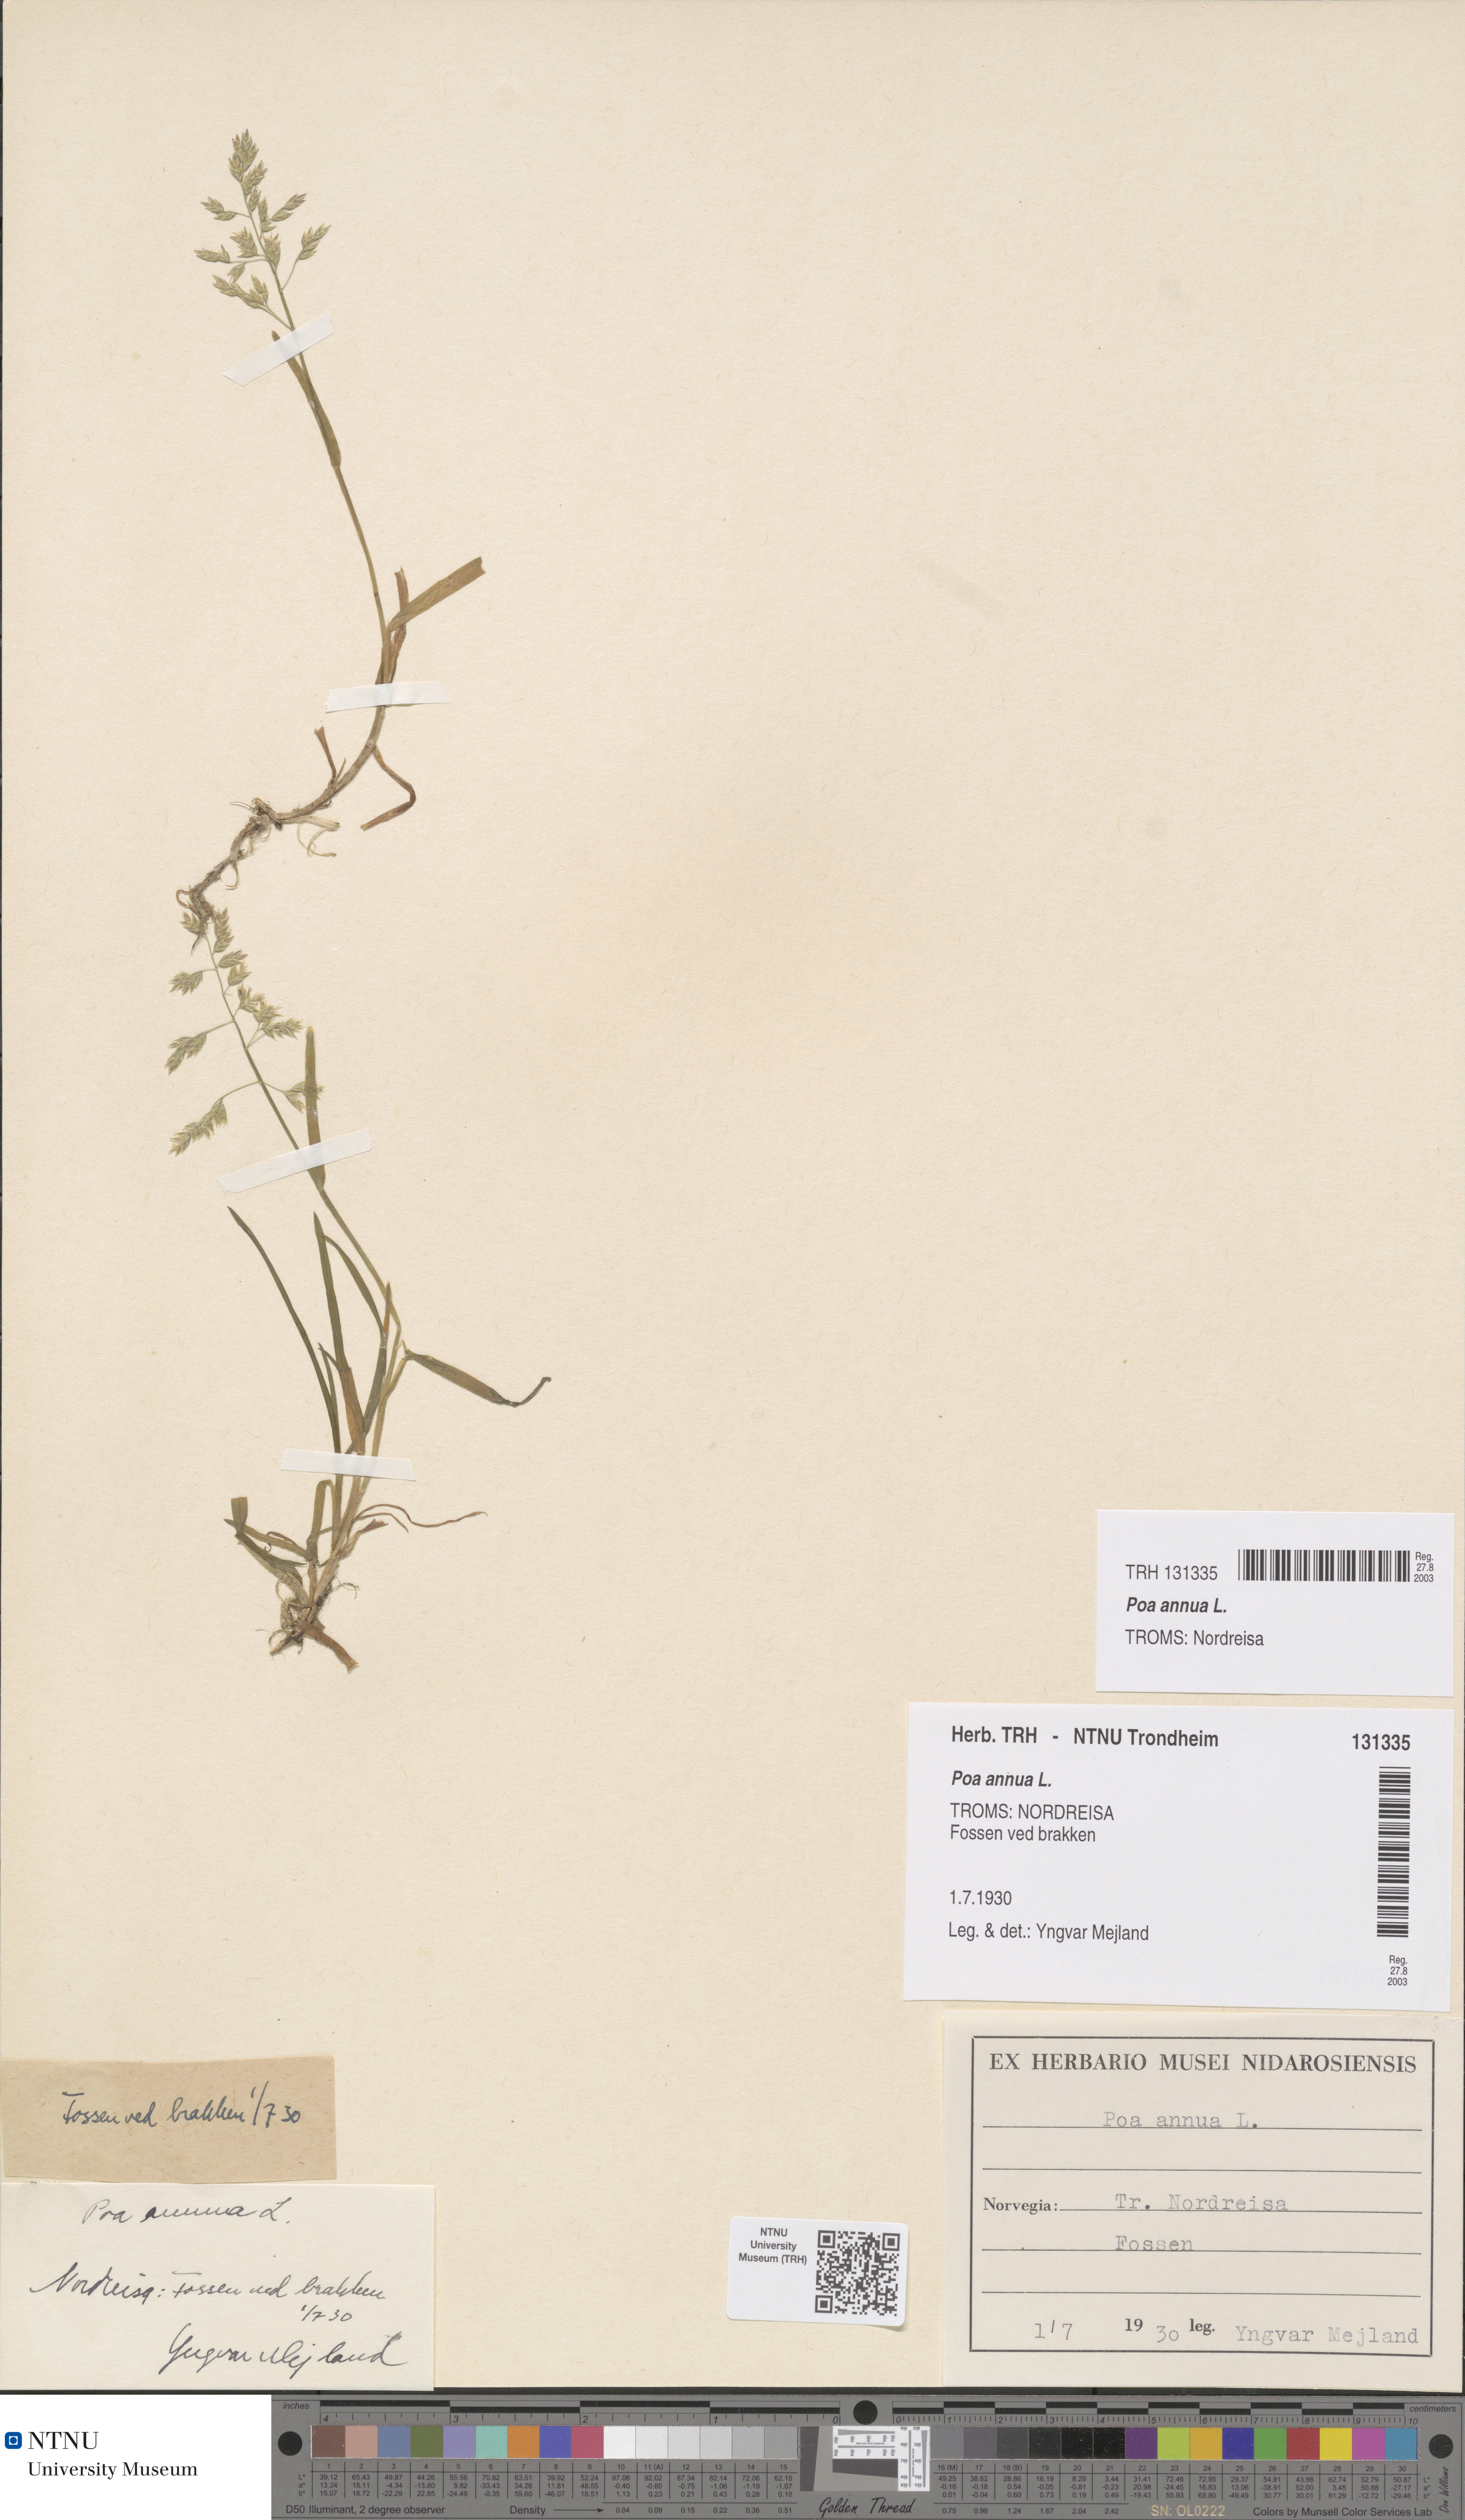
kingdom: Plantae
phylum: Tracheophyta
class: Liliopsida
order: Poales
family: Poaceae
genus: Poa
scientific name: Poa annua
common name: Annual bluegrass
